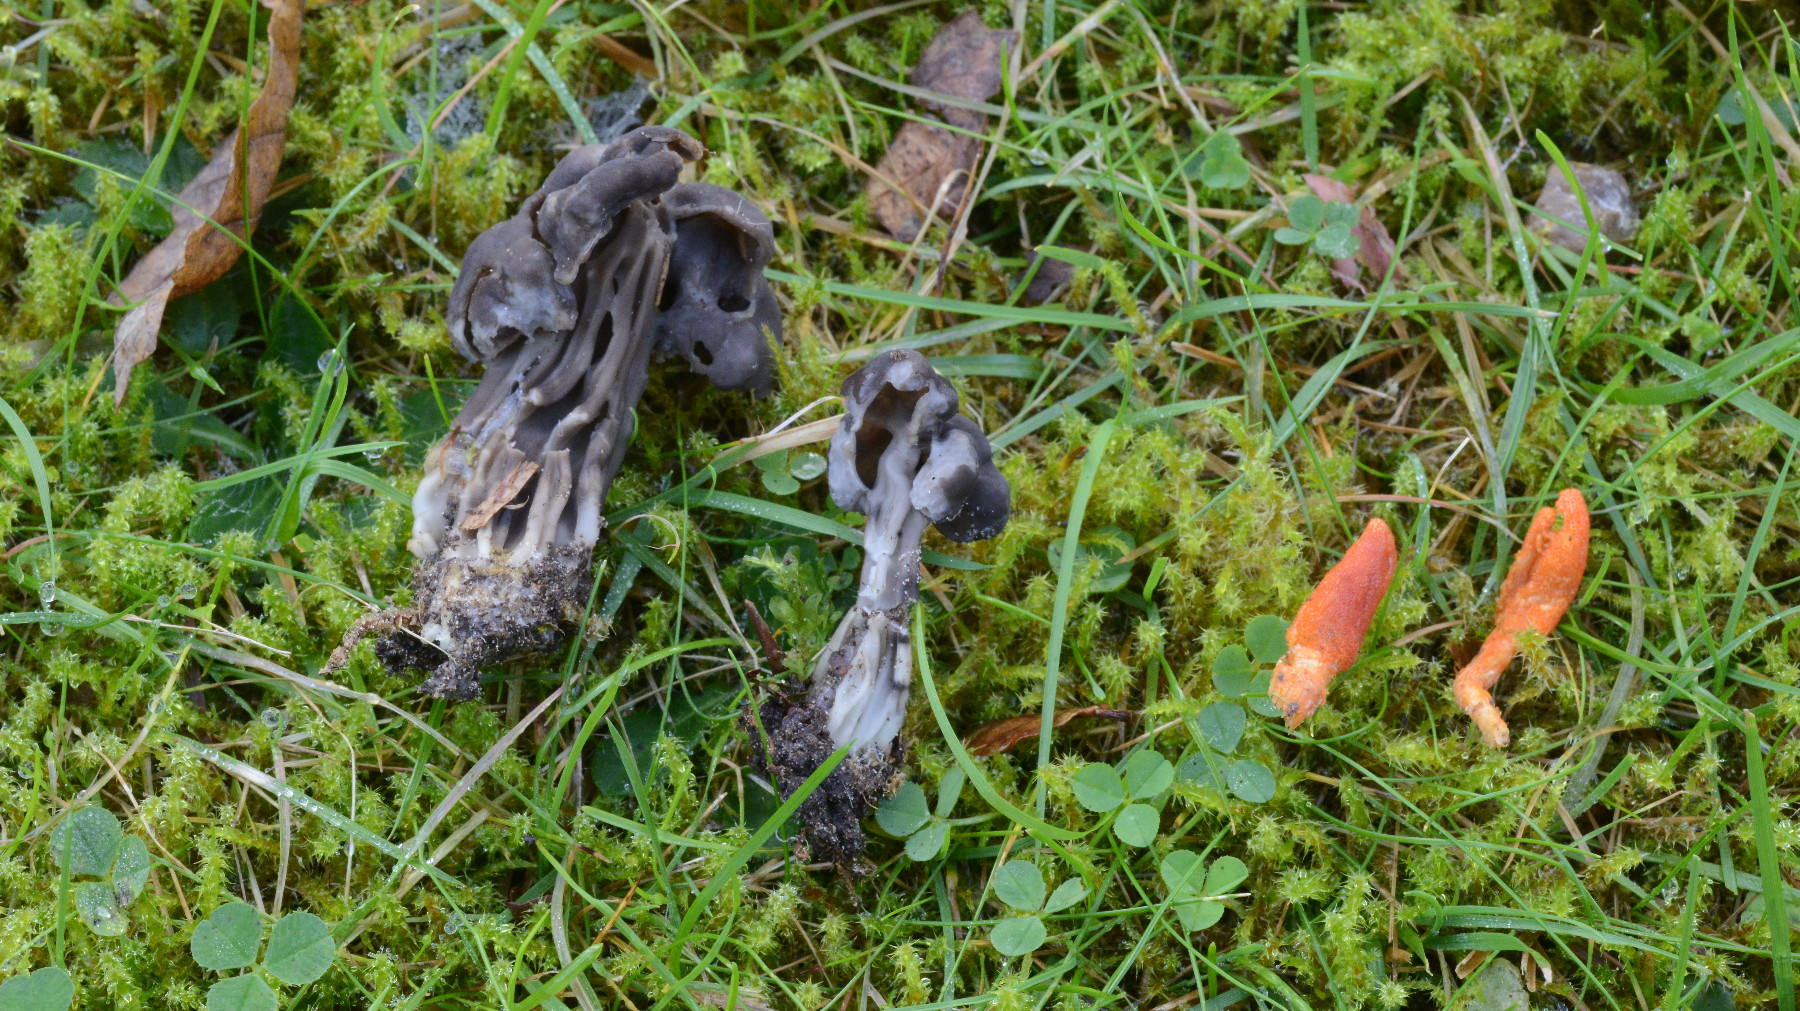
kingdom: Fungi
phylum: Ascomycota
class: Pezizomycetes
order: Pezizales
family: Helvellaceae
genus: Helvella
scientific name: Helvella lacunosa
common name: grubet foldhat
